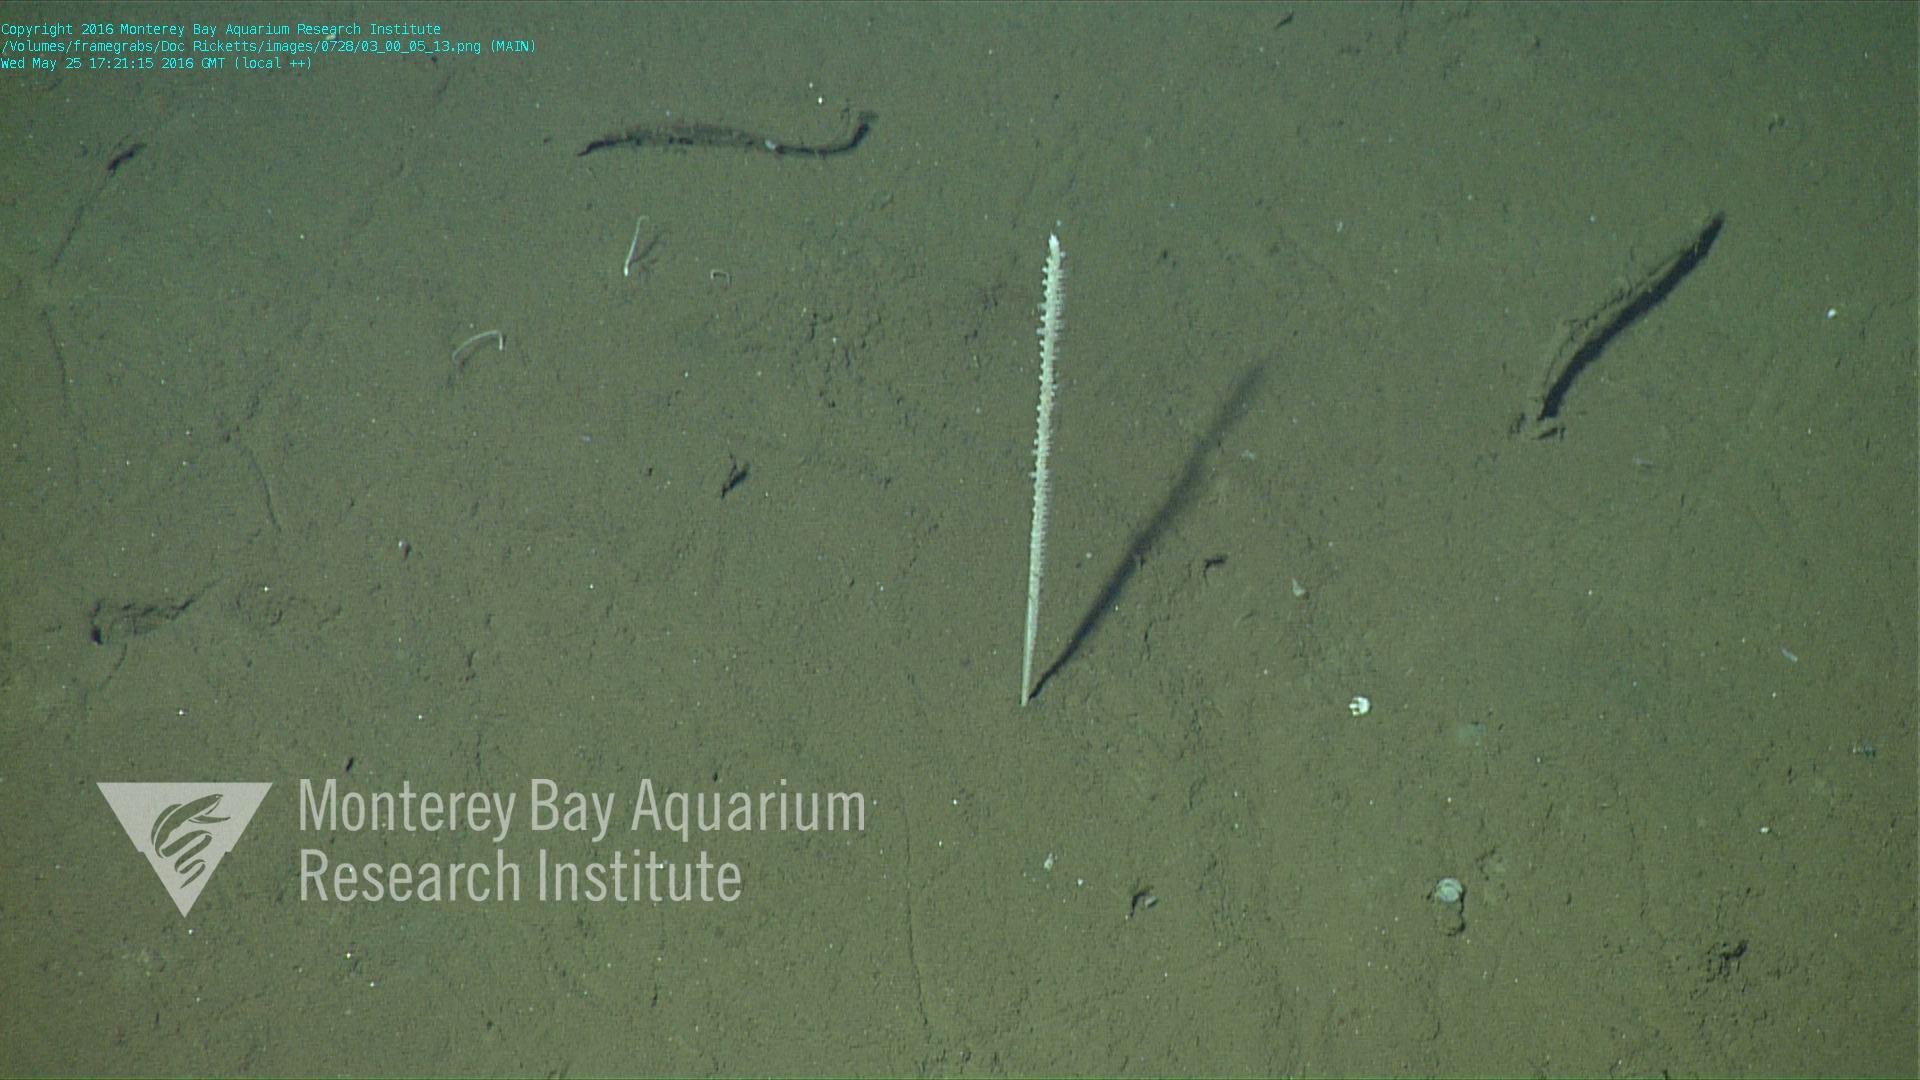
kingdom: Animalia
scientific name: Animalia
